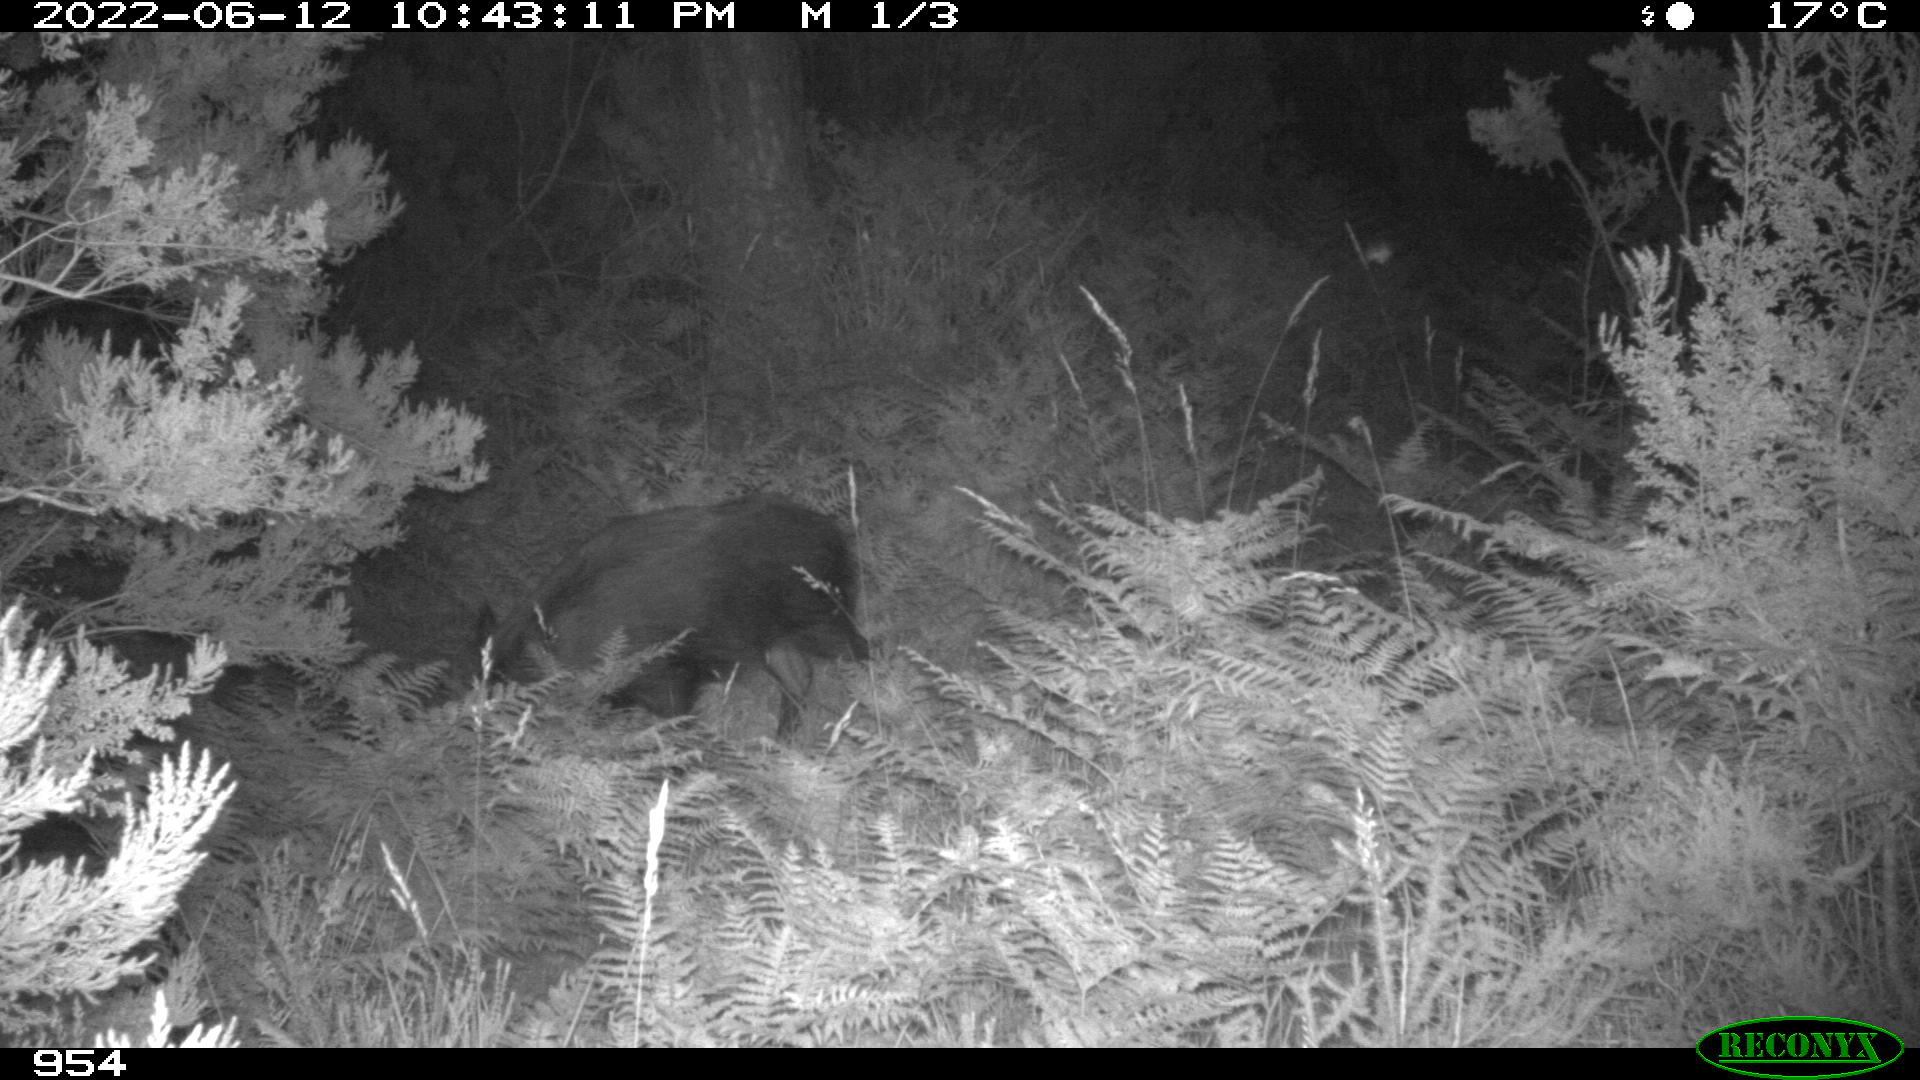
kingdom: Animalia
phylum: Chordata
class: Mammalia
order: Artiodactyla
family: Suidae
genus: Sus
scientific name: Sus scrofa
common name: Wild boar
